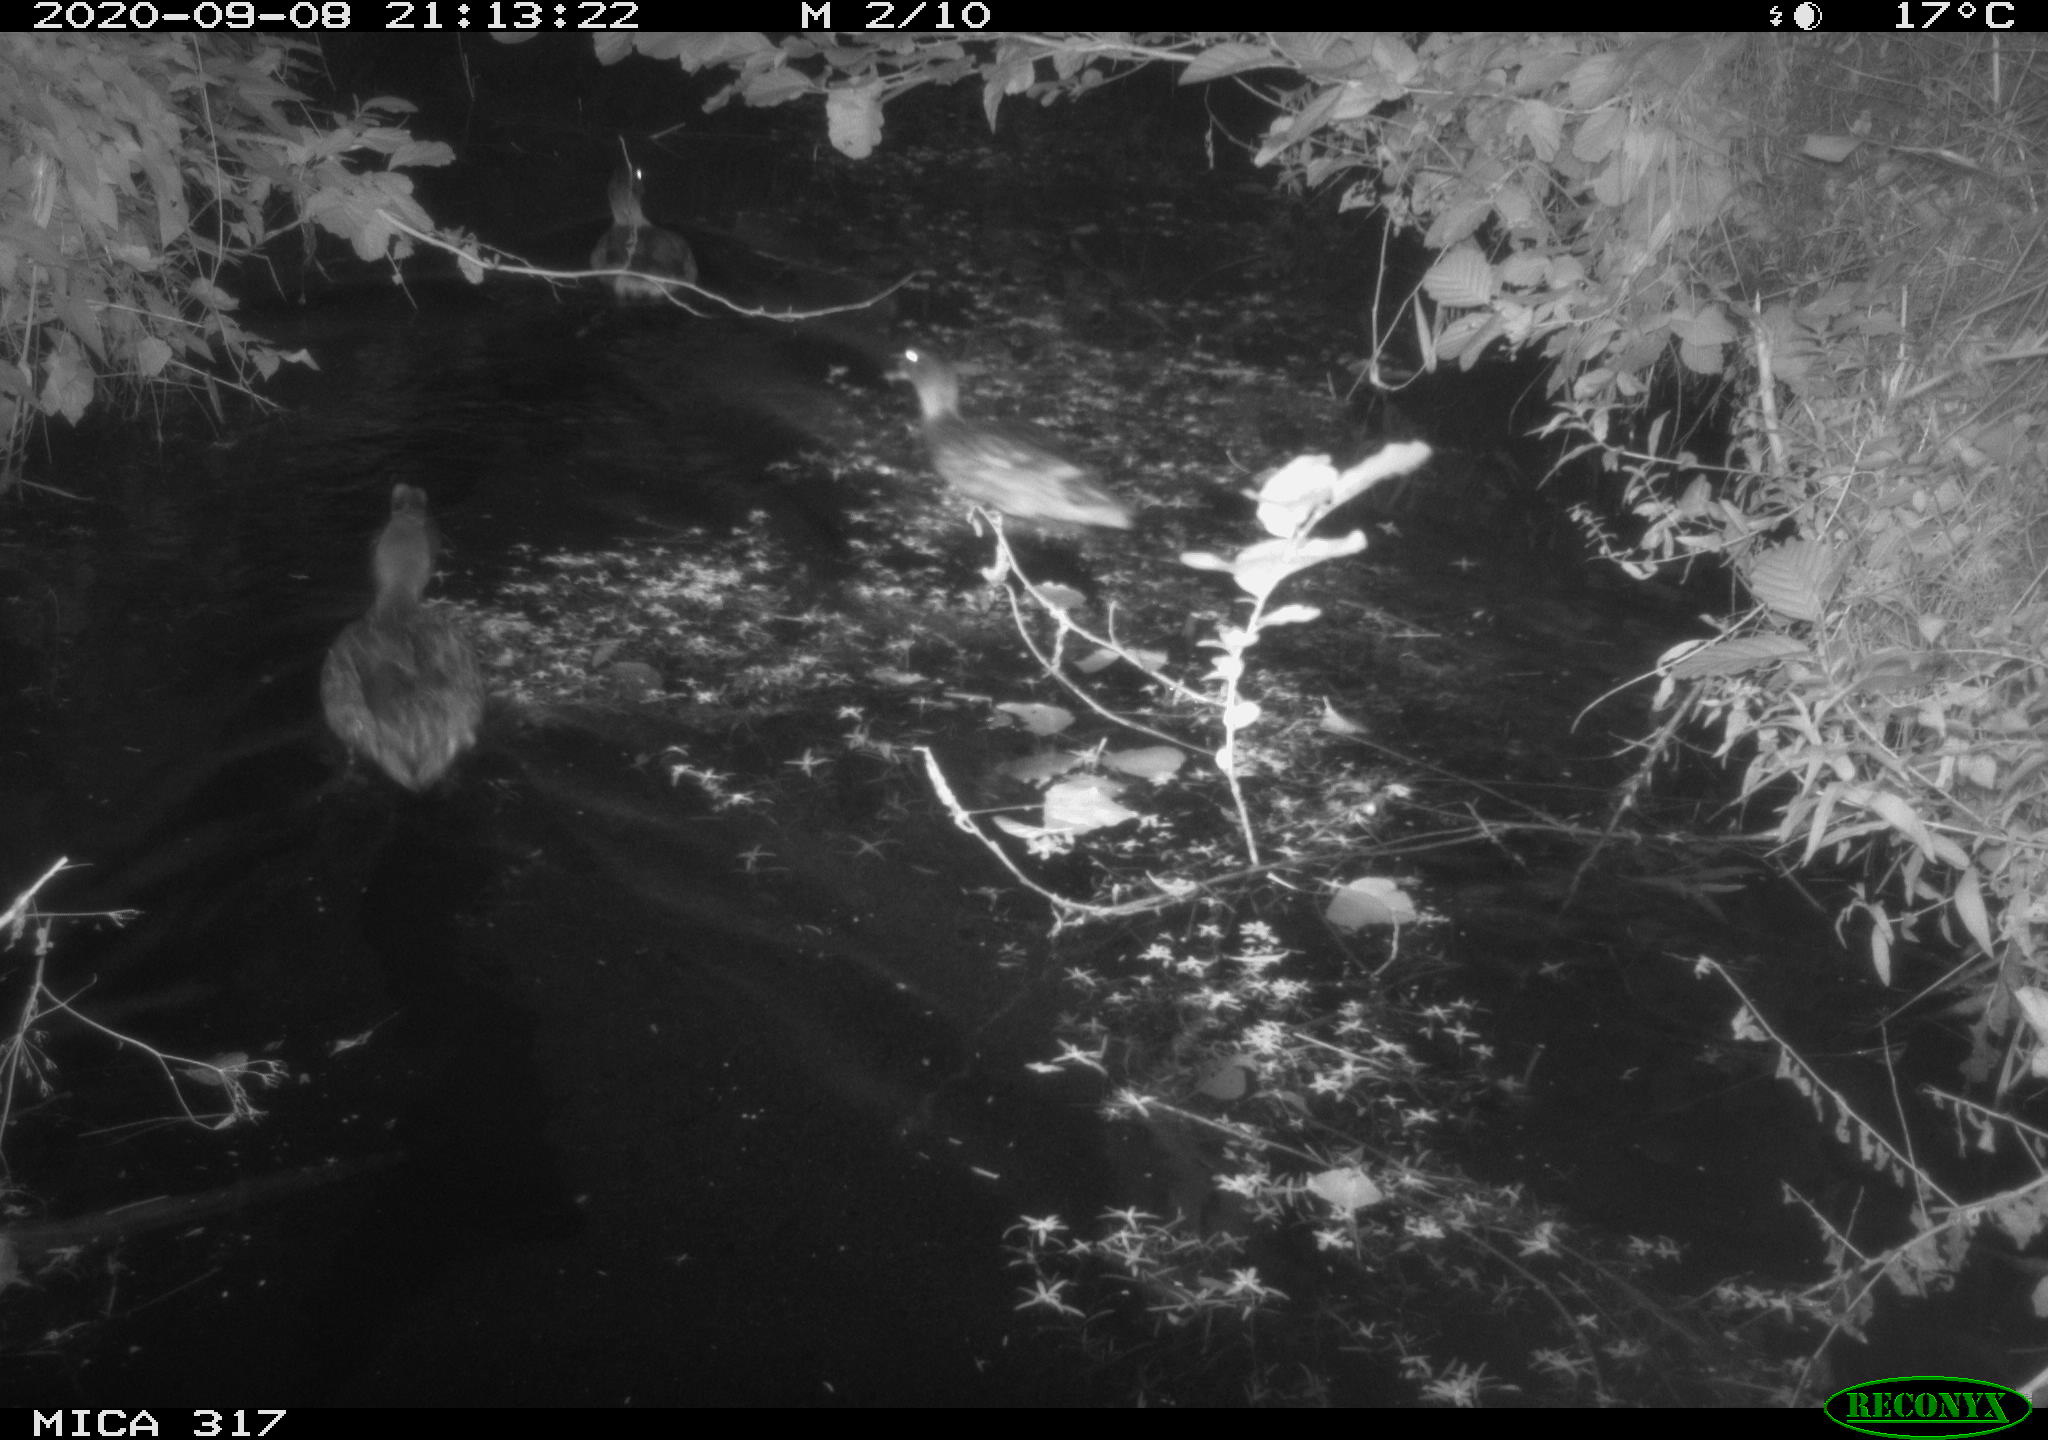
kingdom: Animalia
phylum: Chordata
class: Aves
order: Anseriformes
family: Anatidae
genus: Anas
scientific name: Anas platyrhynchos
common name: Mallard
